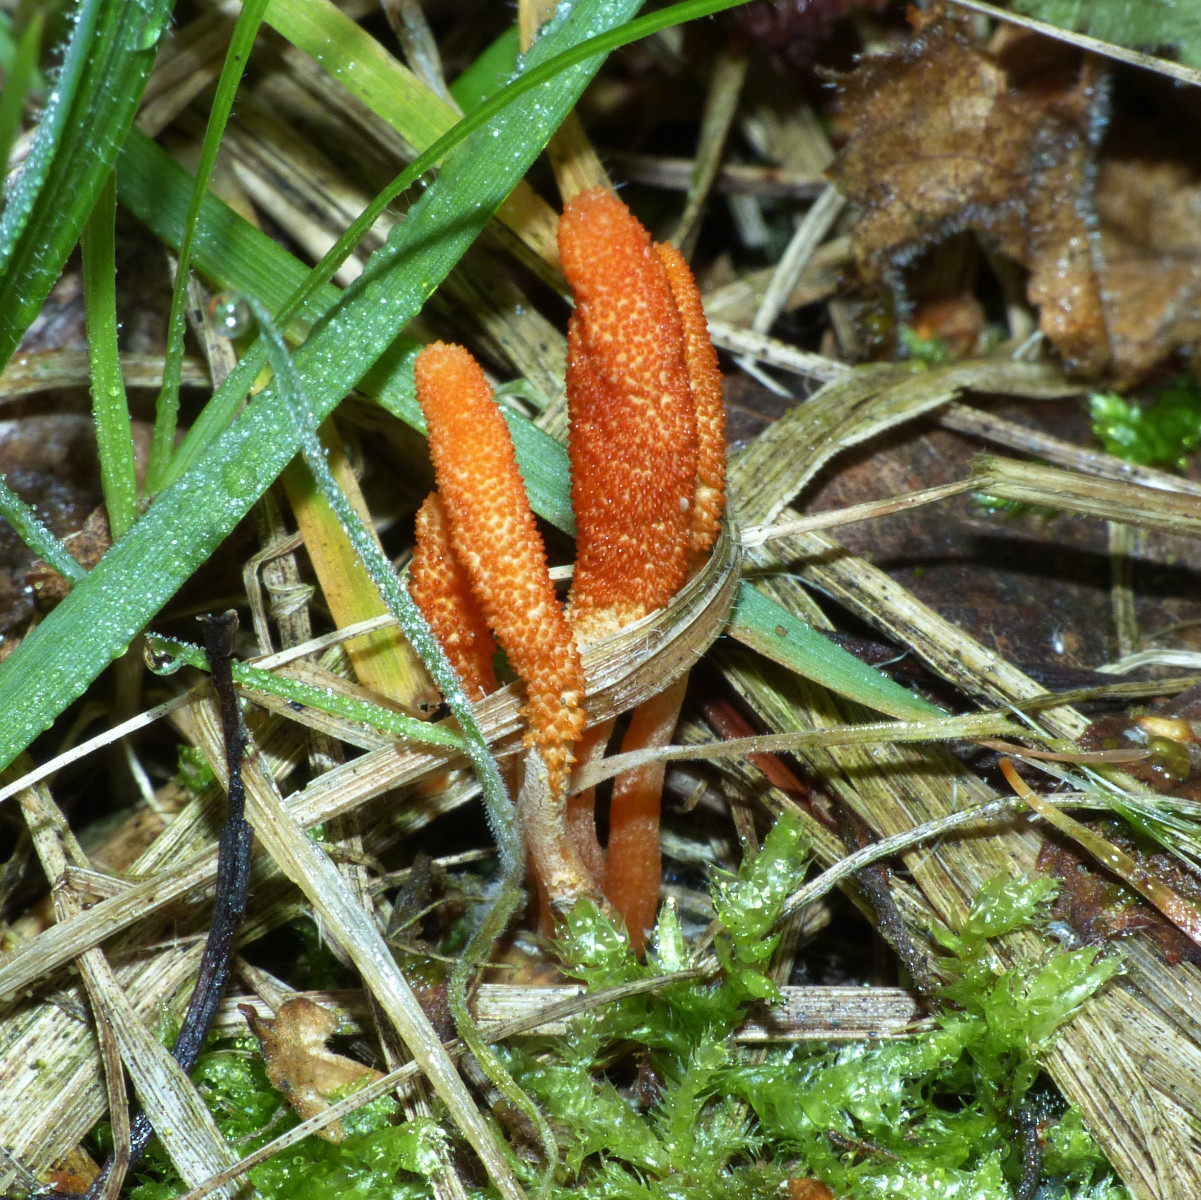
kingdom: Fungi
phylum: Ascomycota
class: Sordariomycetes
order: Hypocreales
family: Cordycipitaceae
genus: Cordyceps
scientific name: Cordyceps militaris
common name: puppe-snyltekølle
